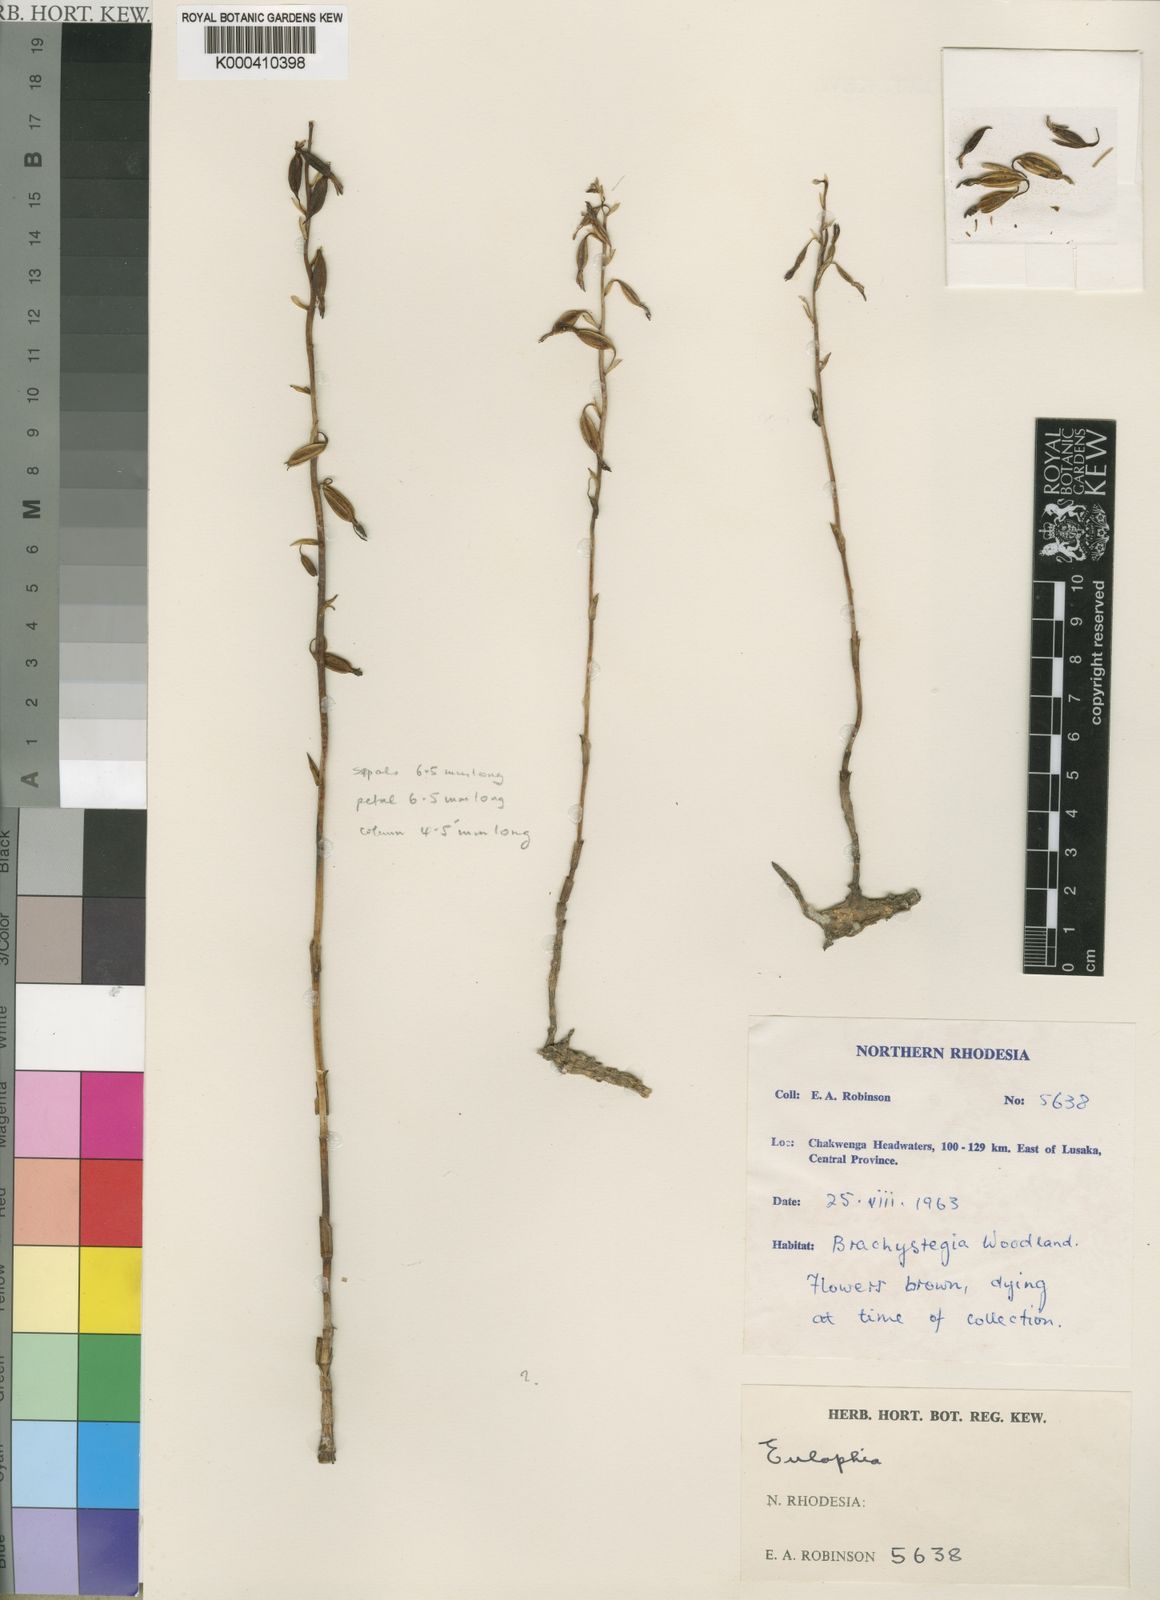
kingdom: Plantae
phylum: Tracheophyta
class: Liliopsida
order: Asparagales
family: Orchidaceae
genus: Eulophia
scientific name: Eulophia gastrodioides
